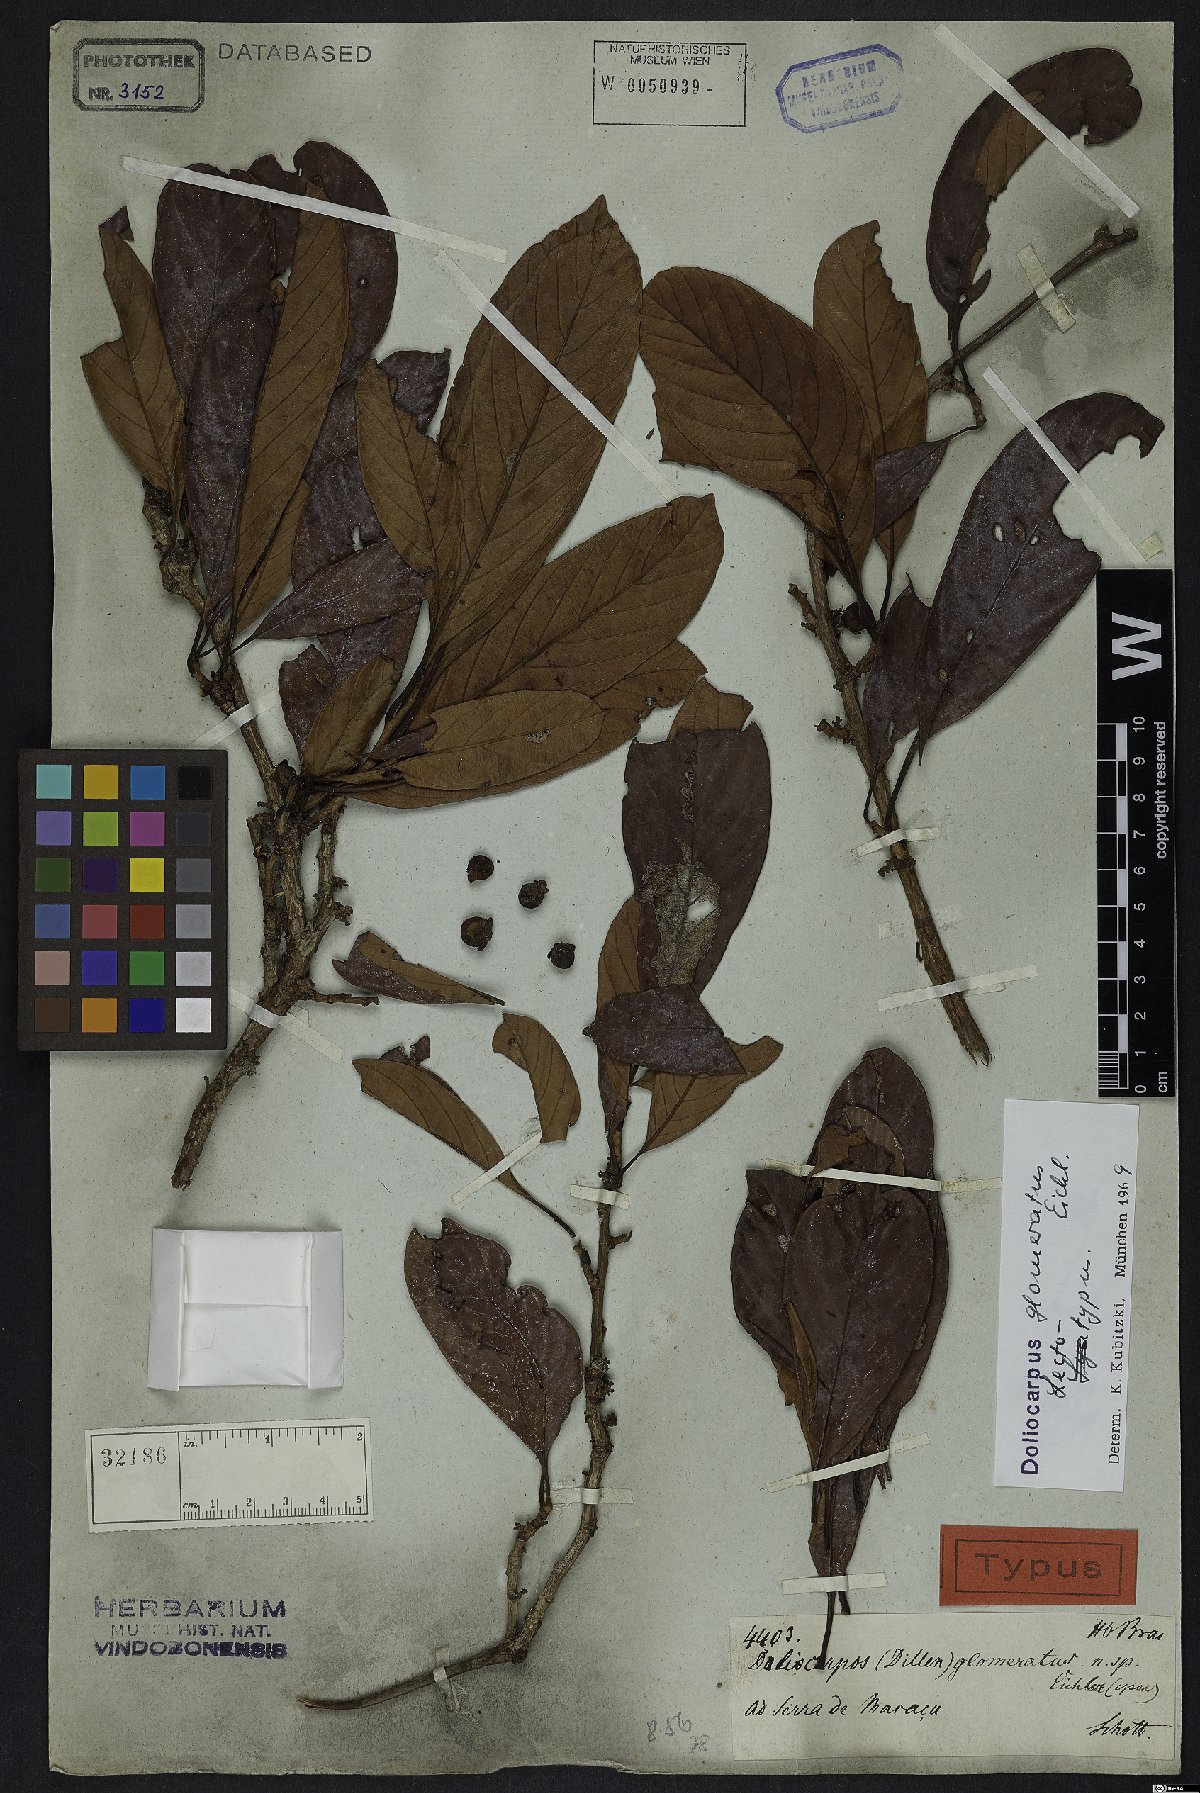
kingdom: Plantae
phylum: Tracheophyta
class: Magnoliopsida
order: Dilleniales
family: Dilleniaceae
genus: Doliocarpus
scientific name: Doliocarpus glomeratus
